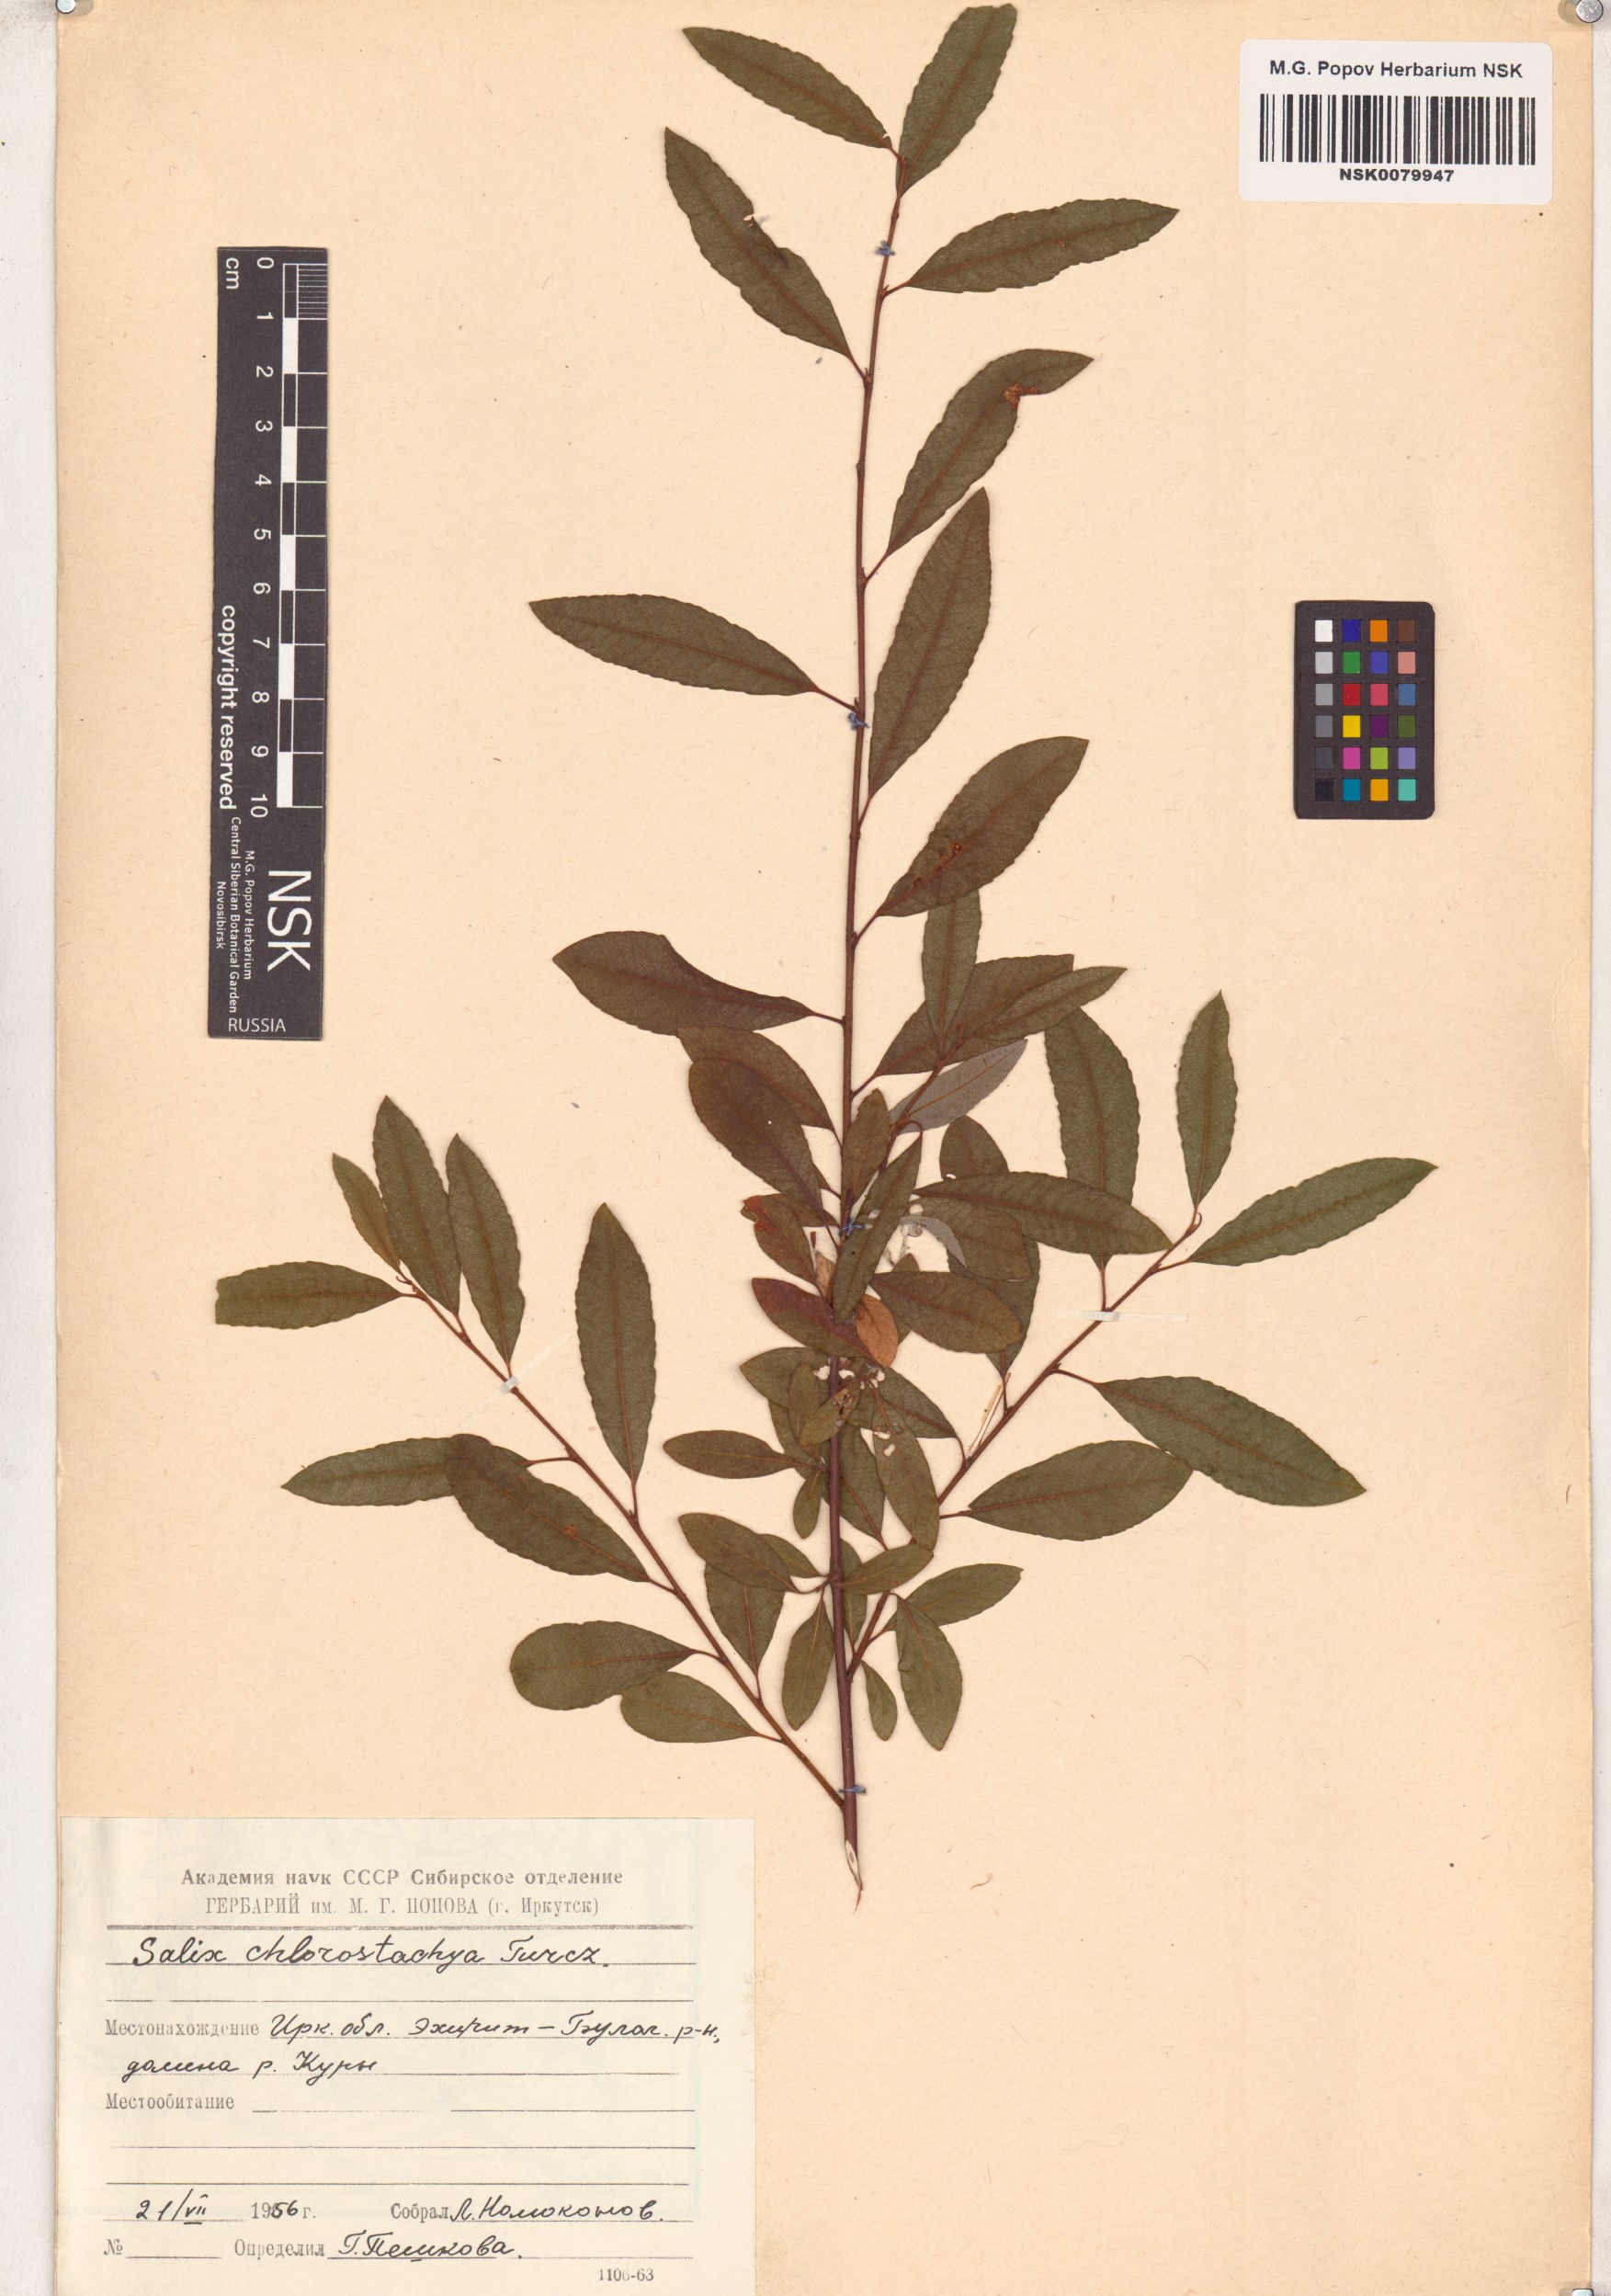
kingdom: Plantae
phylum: Tracheophyta
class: Magnoliopsida
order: Malpighiales
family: Salicaceae
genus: Salix
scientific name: Salix rhamnifolia
